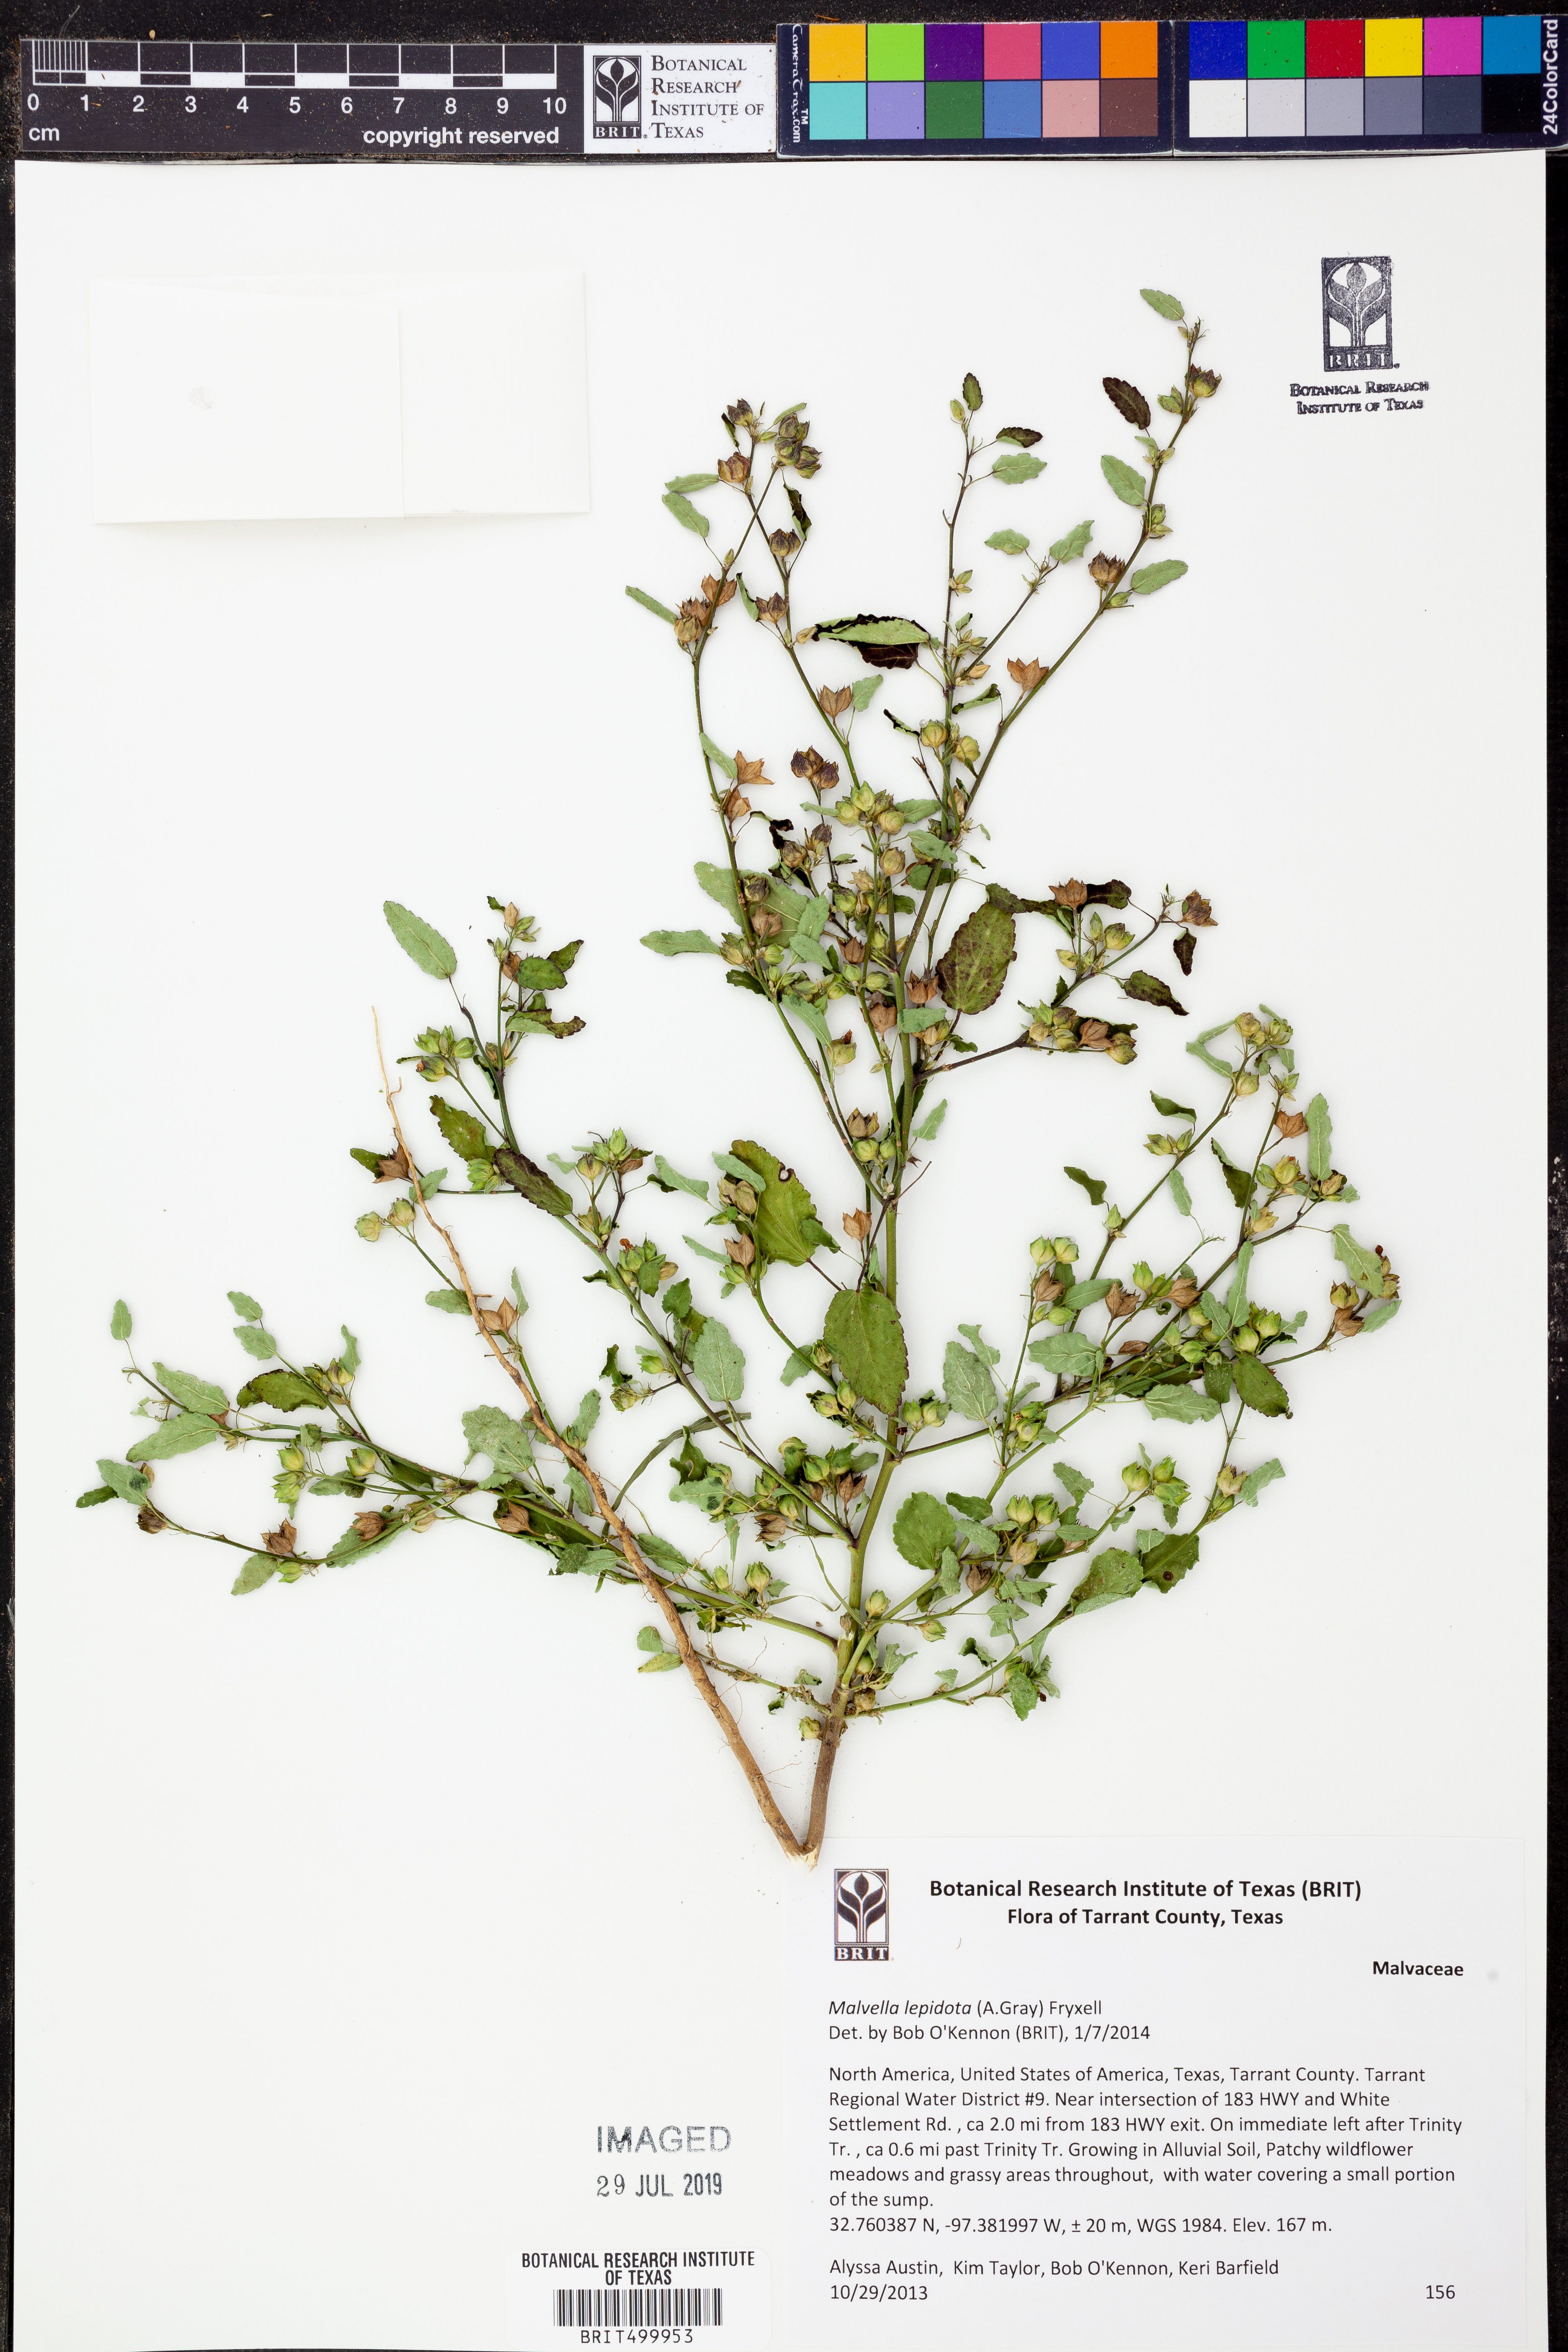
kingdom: Plantae
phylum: Tracheophyta
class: Magnoliopsida
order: Malvales
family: Malvaceae
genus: Malvella
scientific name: Malvella lepidota
